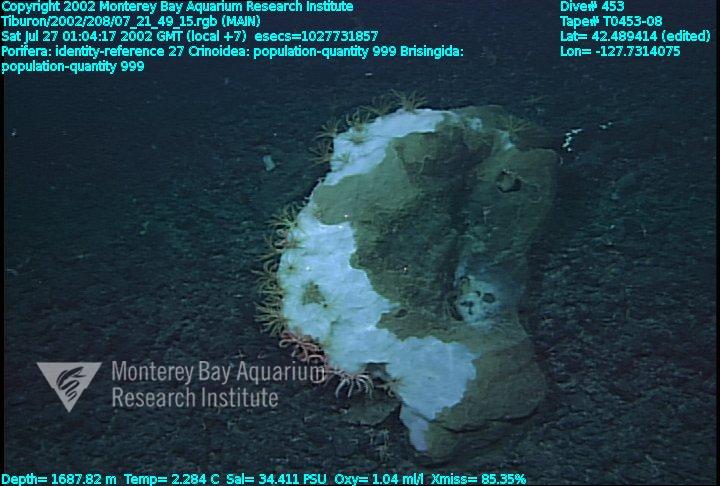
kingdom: Animalia
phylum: Porifera
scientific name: Porifera
